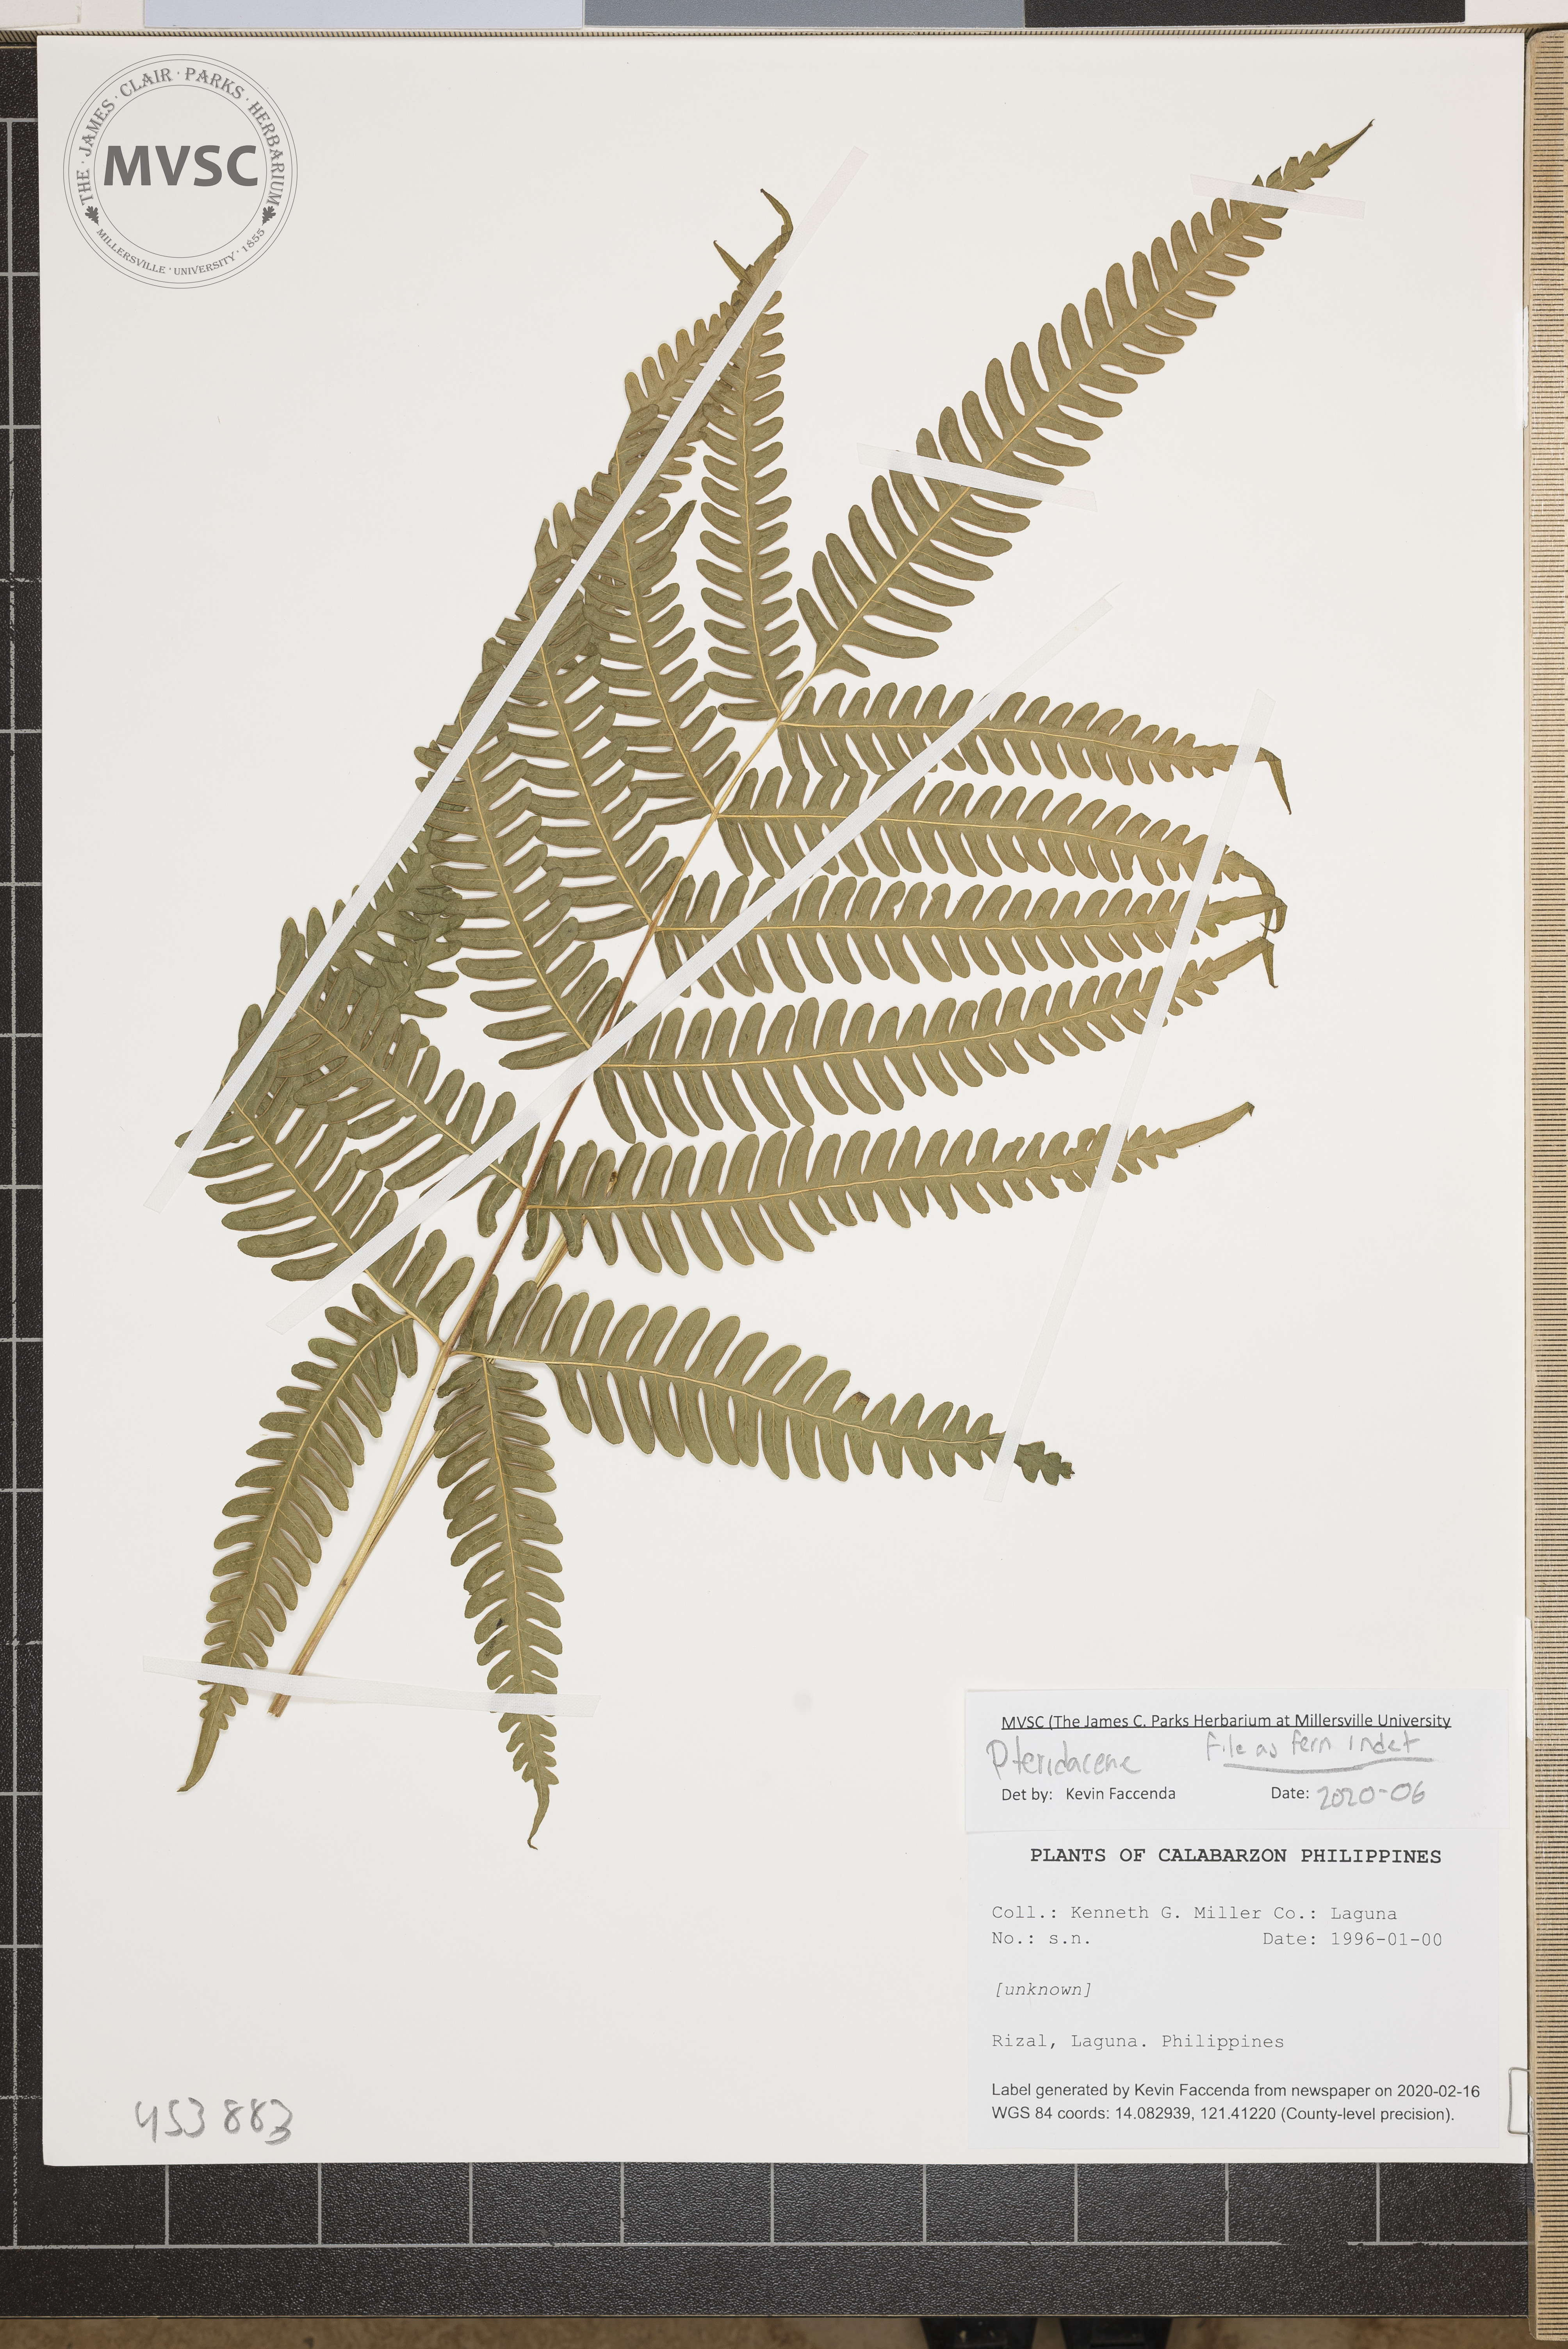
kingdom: Plantae
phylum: Tracheophyta
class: Polypodiopsida
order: Polypodiales
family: Pteridaceae
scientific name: Pteridaceae
